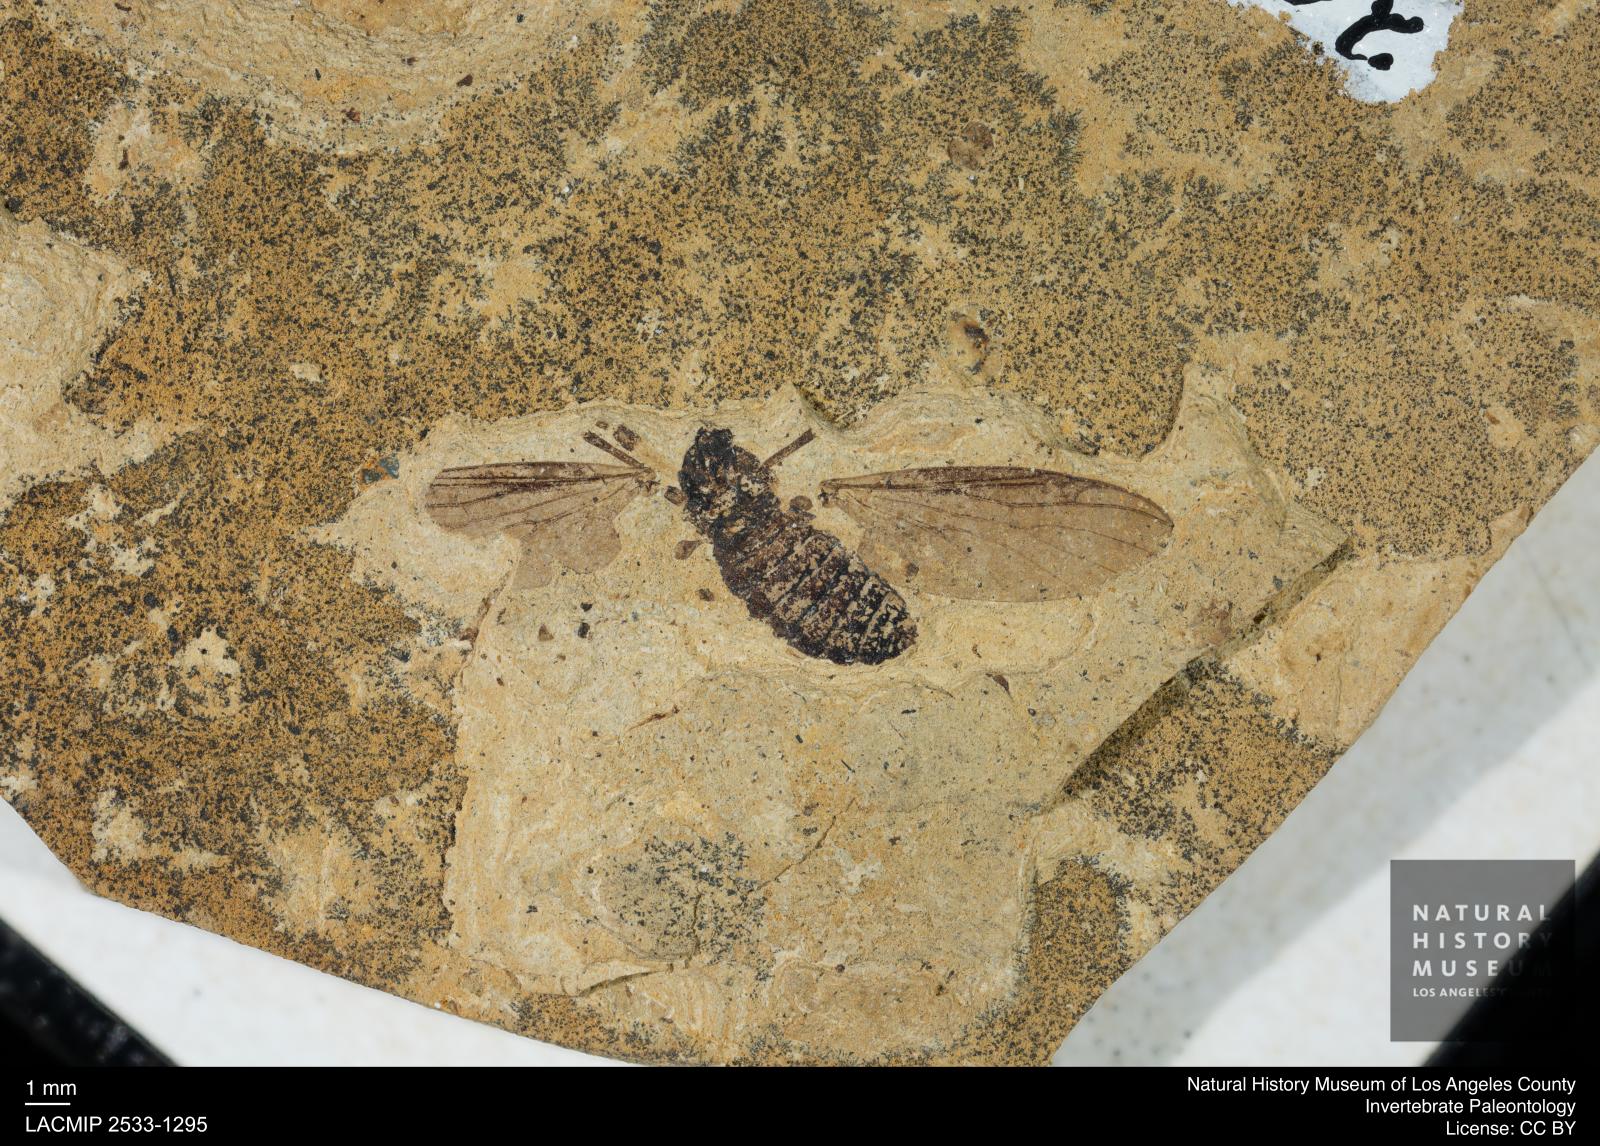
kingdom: Animalia
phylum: Arthropoda
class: Insecta
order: Diptera
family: Bibionidae
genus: Plecia
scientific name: Plecia grossa
